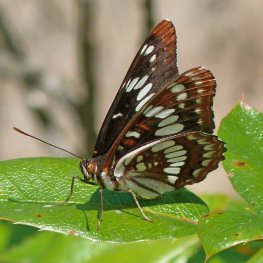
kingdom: Animalia
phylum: Arthropoda
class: Insecta
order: Lepidoptera
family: Nymphalidae
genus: Limenitis
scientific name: Limenitis lorquini
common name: Lorquin's Admiral
